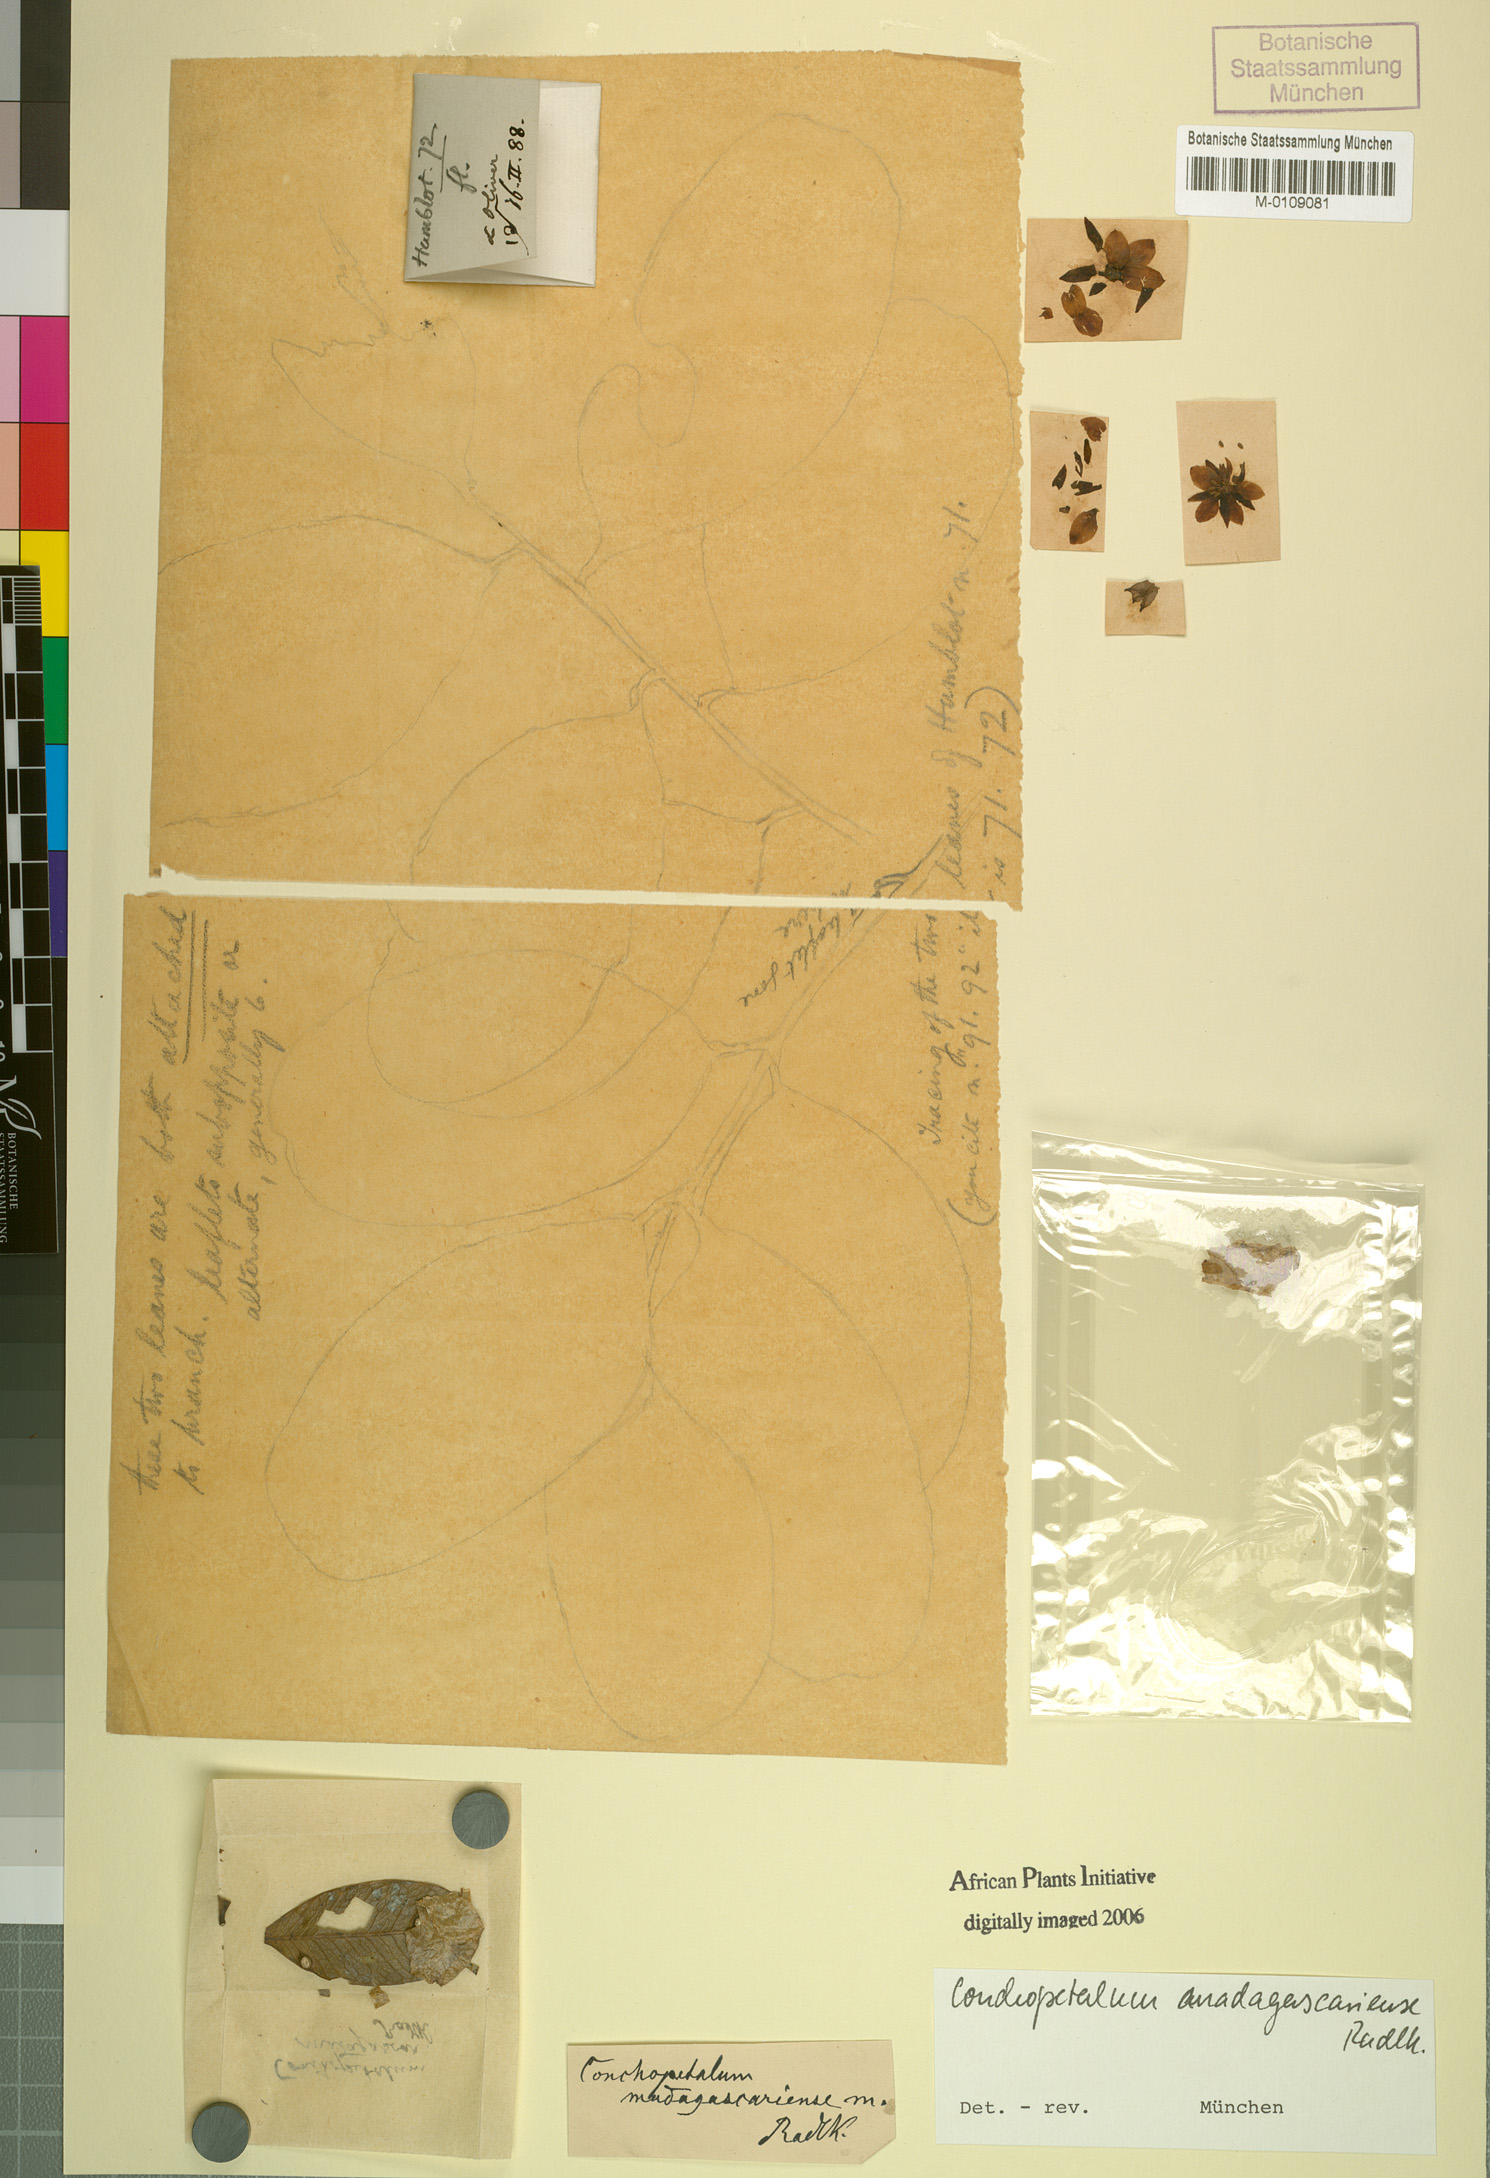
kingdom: Plantae
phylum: Tracheophyta
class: Magnoliopsida
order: Sapindales
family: Sapindaceae
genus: Conchopetalum
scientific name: Conchopetalum madagascariense
